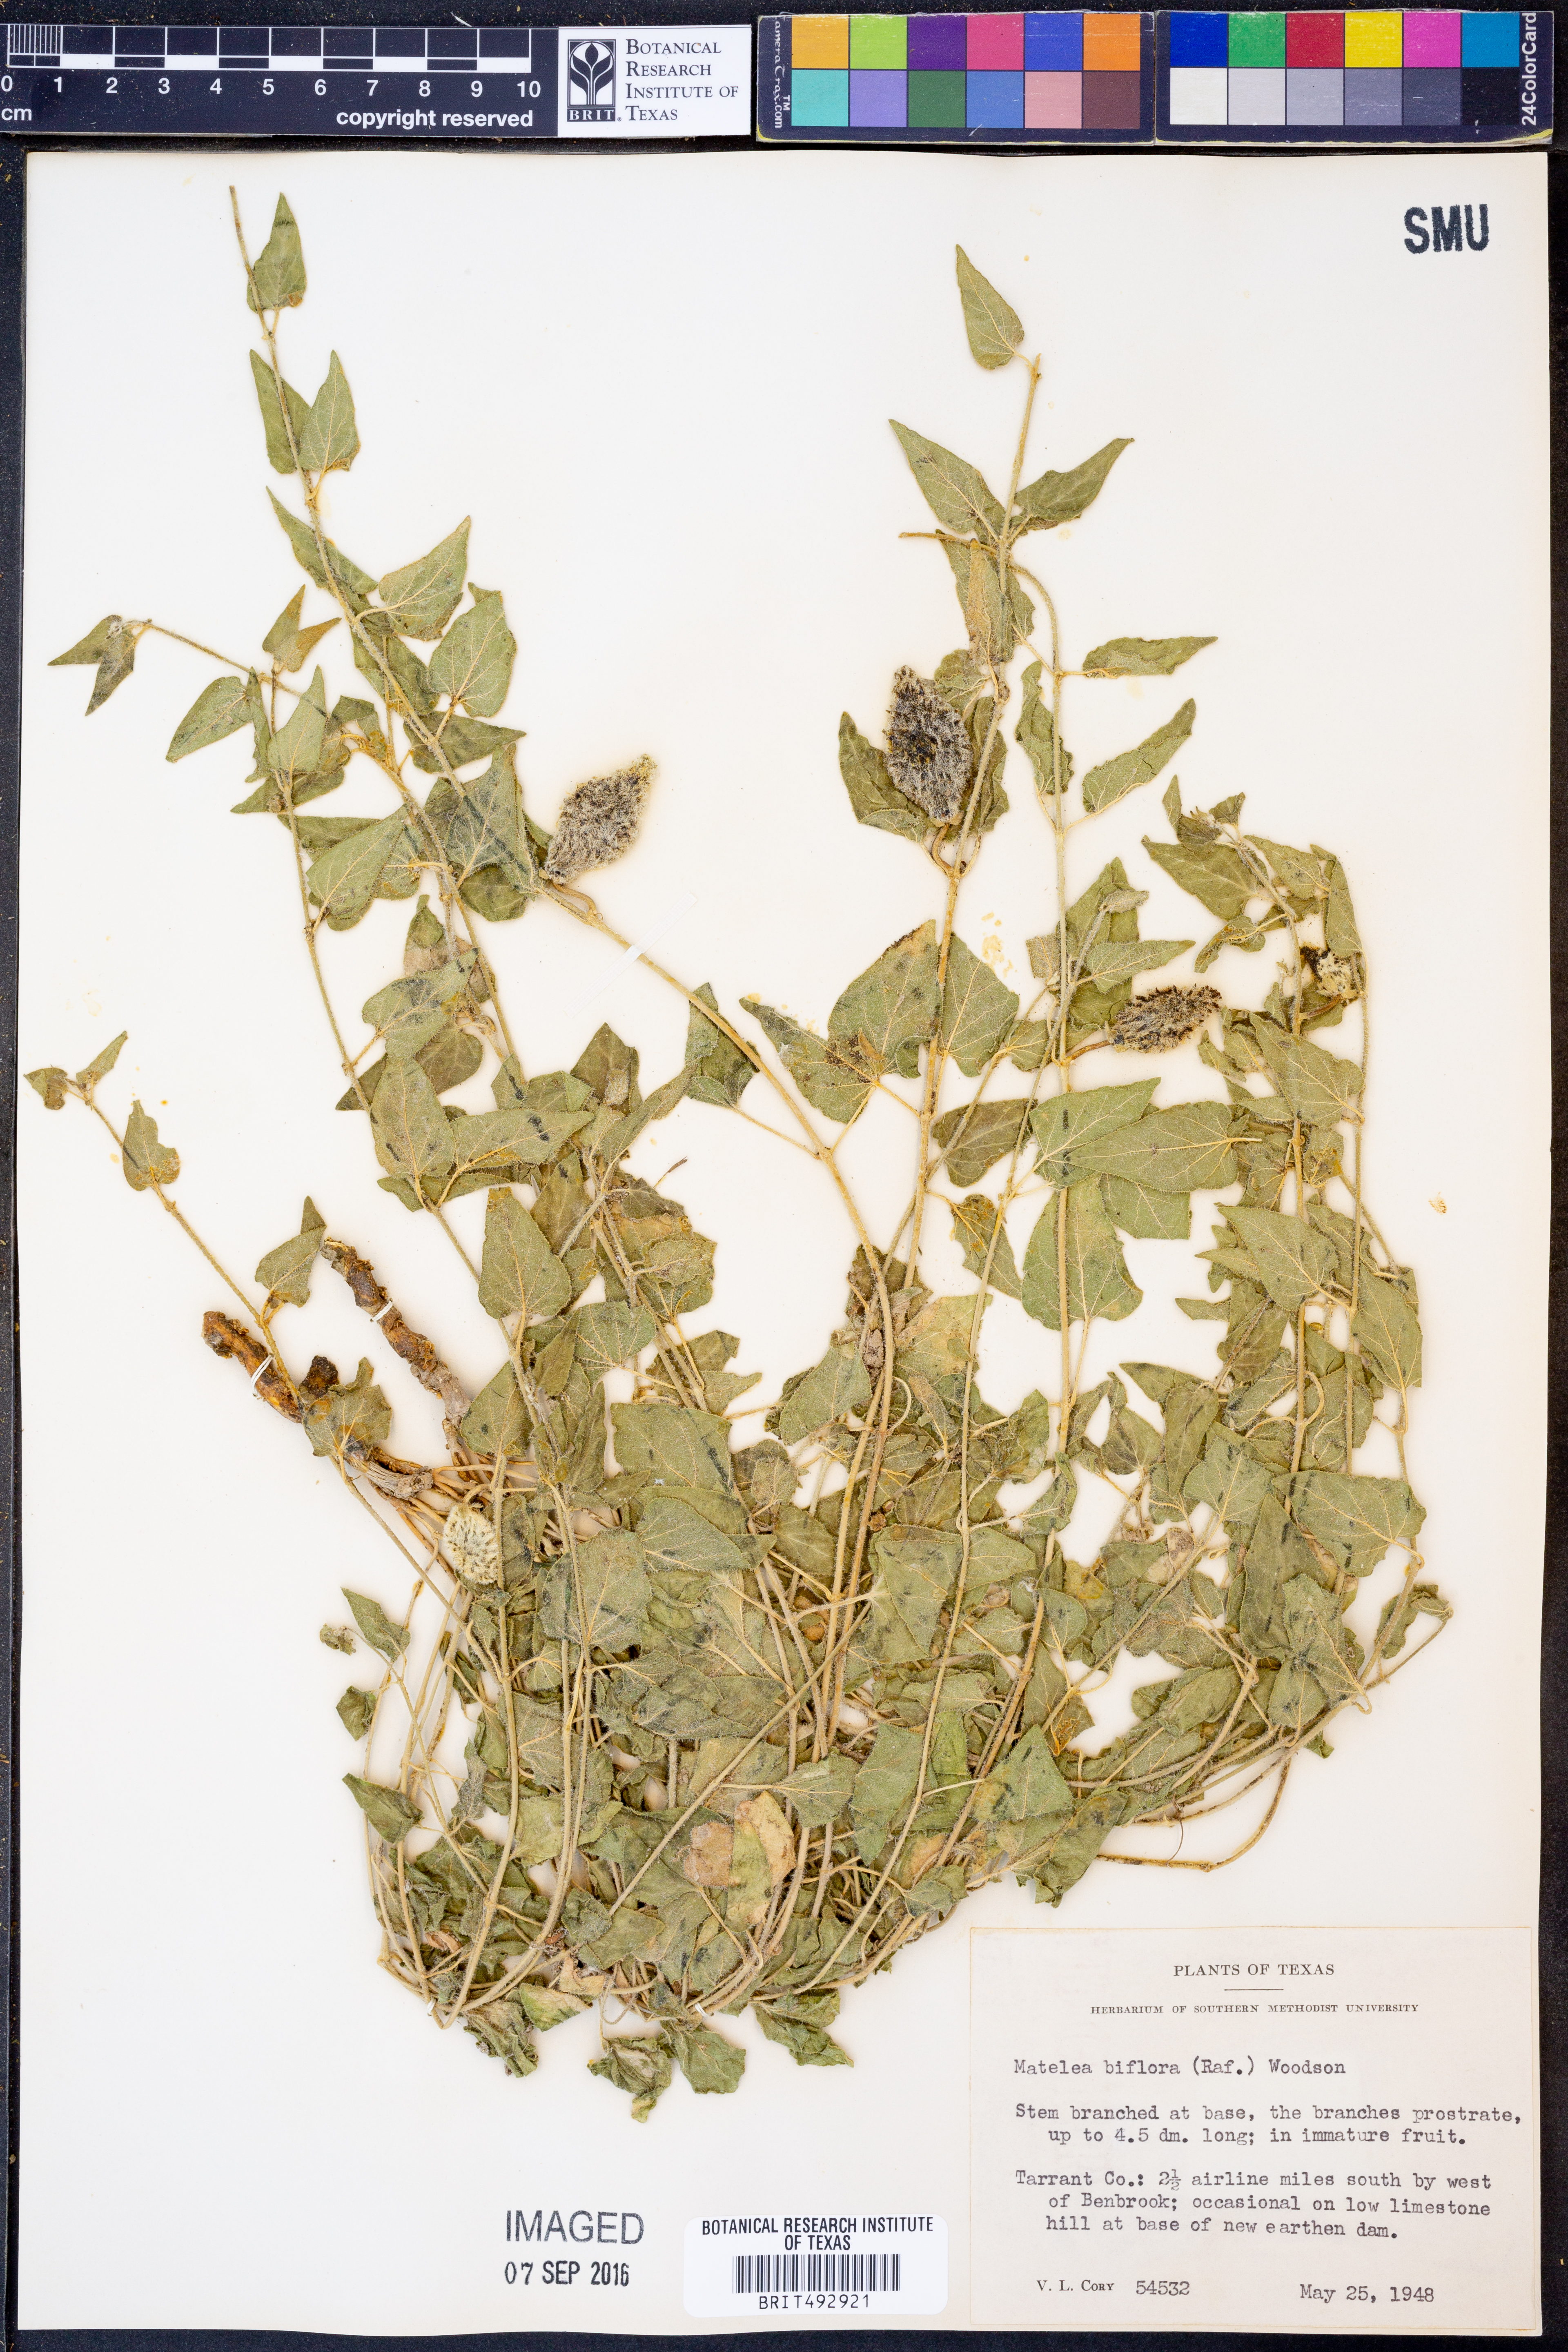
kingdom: Plantae
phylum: Tracheophyta
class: Magnoliopsida
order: Gentianales
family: Apocynaceae
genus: Chthamalia
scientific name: Chthamalia biflora
